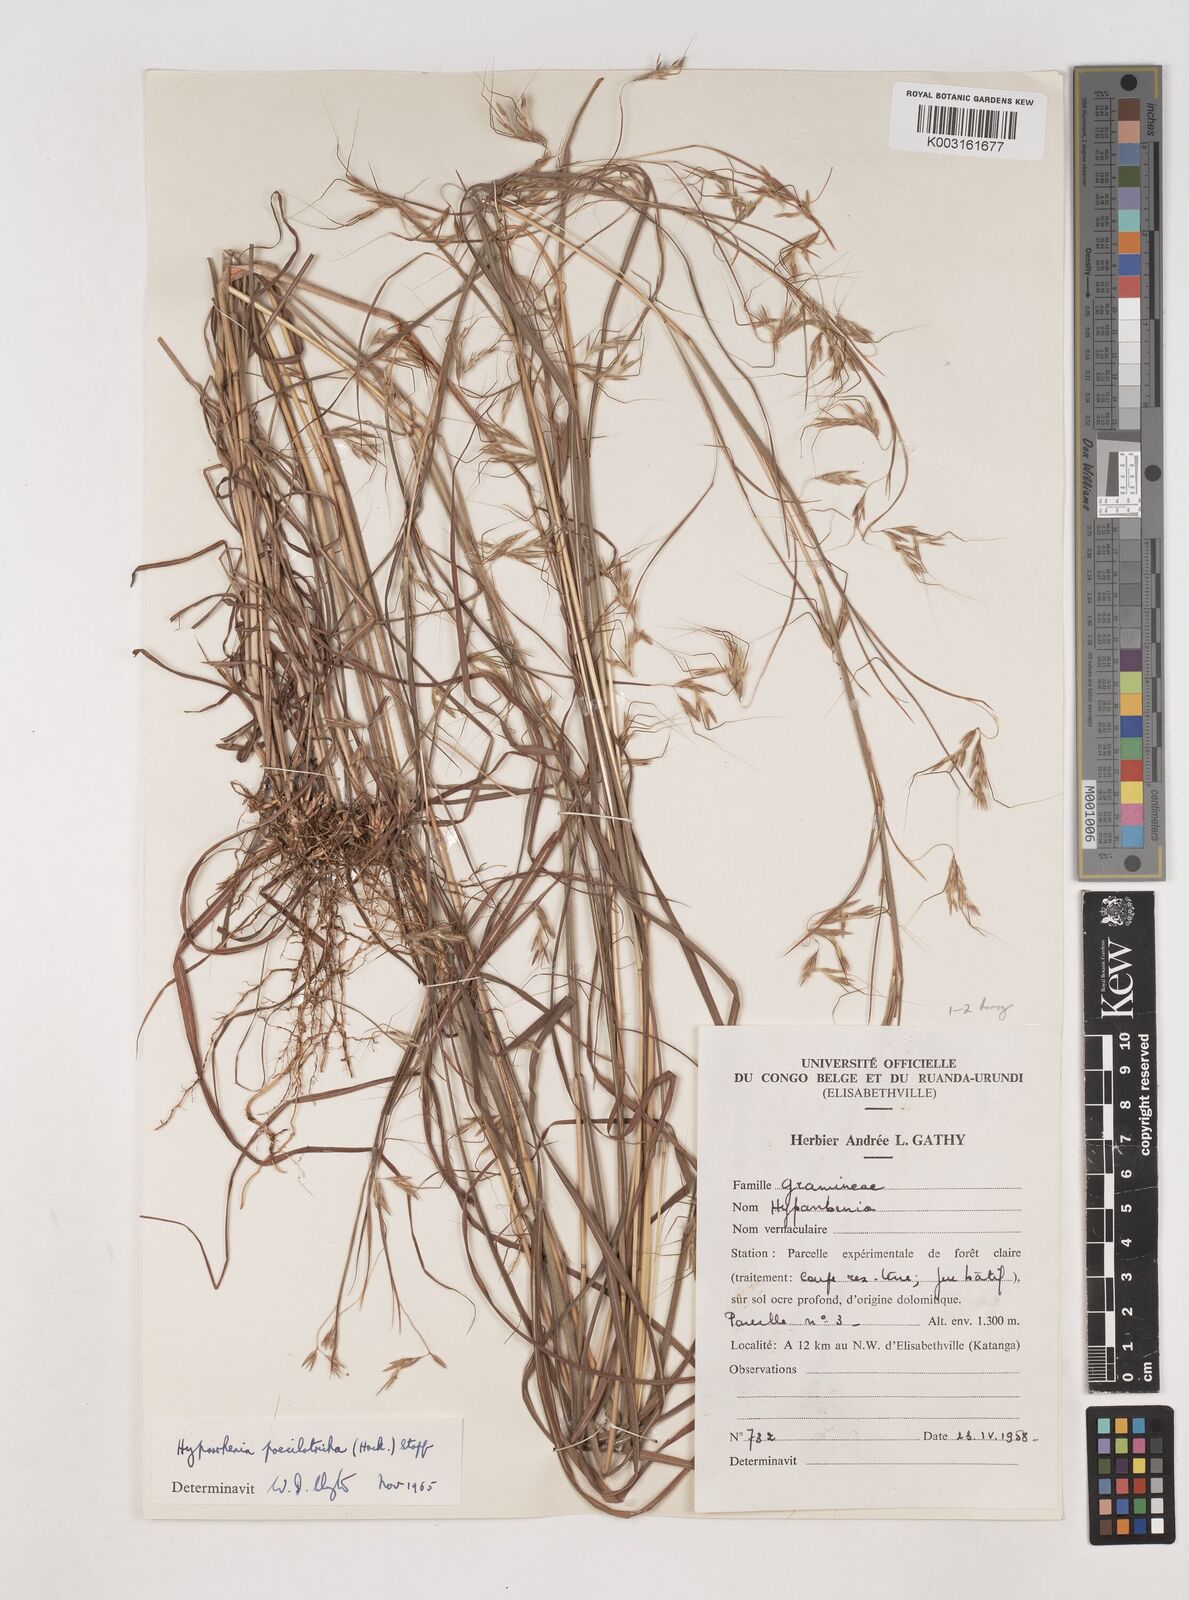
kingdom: Plantae
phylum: Tracheophyta
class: Liliopsida
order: Poales
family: Poaceae
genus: Hyparrhenia
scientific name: Hyparrhenia poecilotricha
